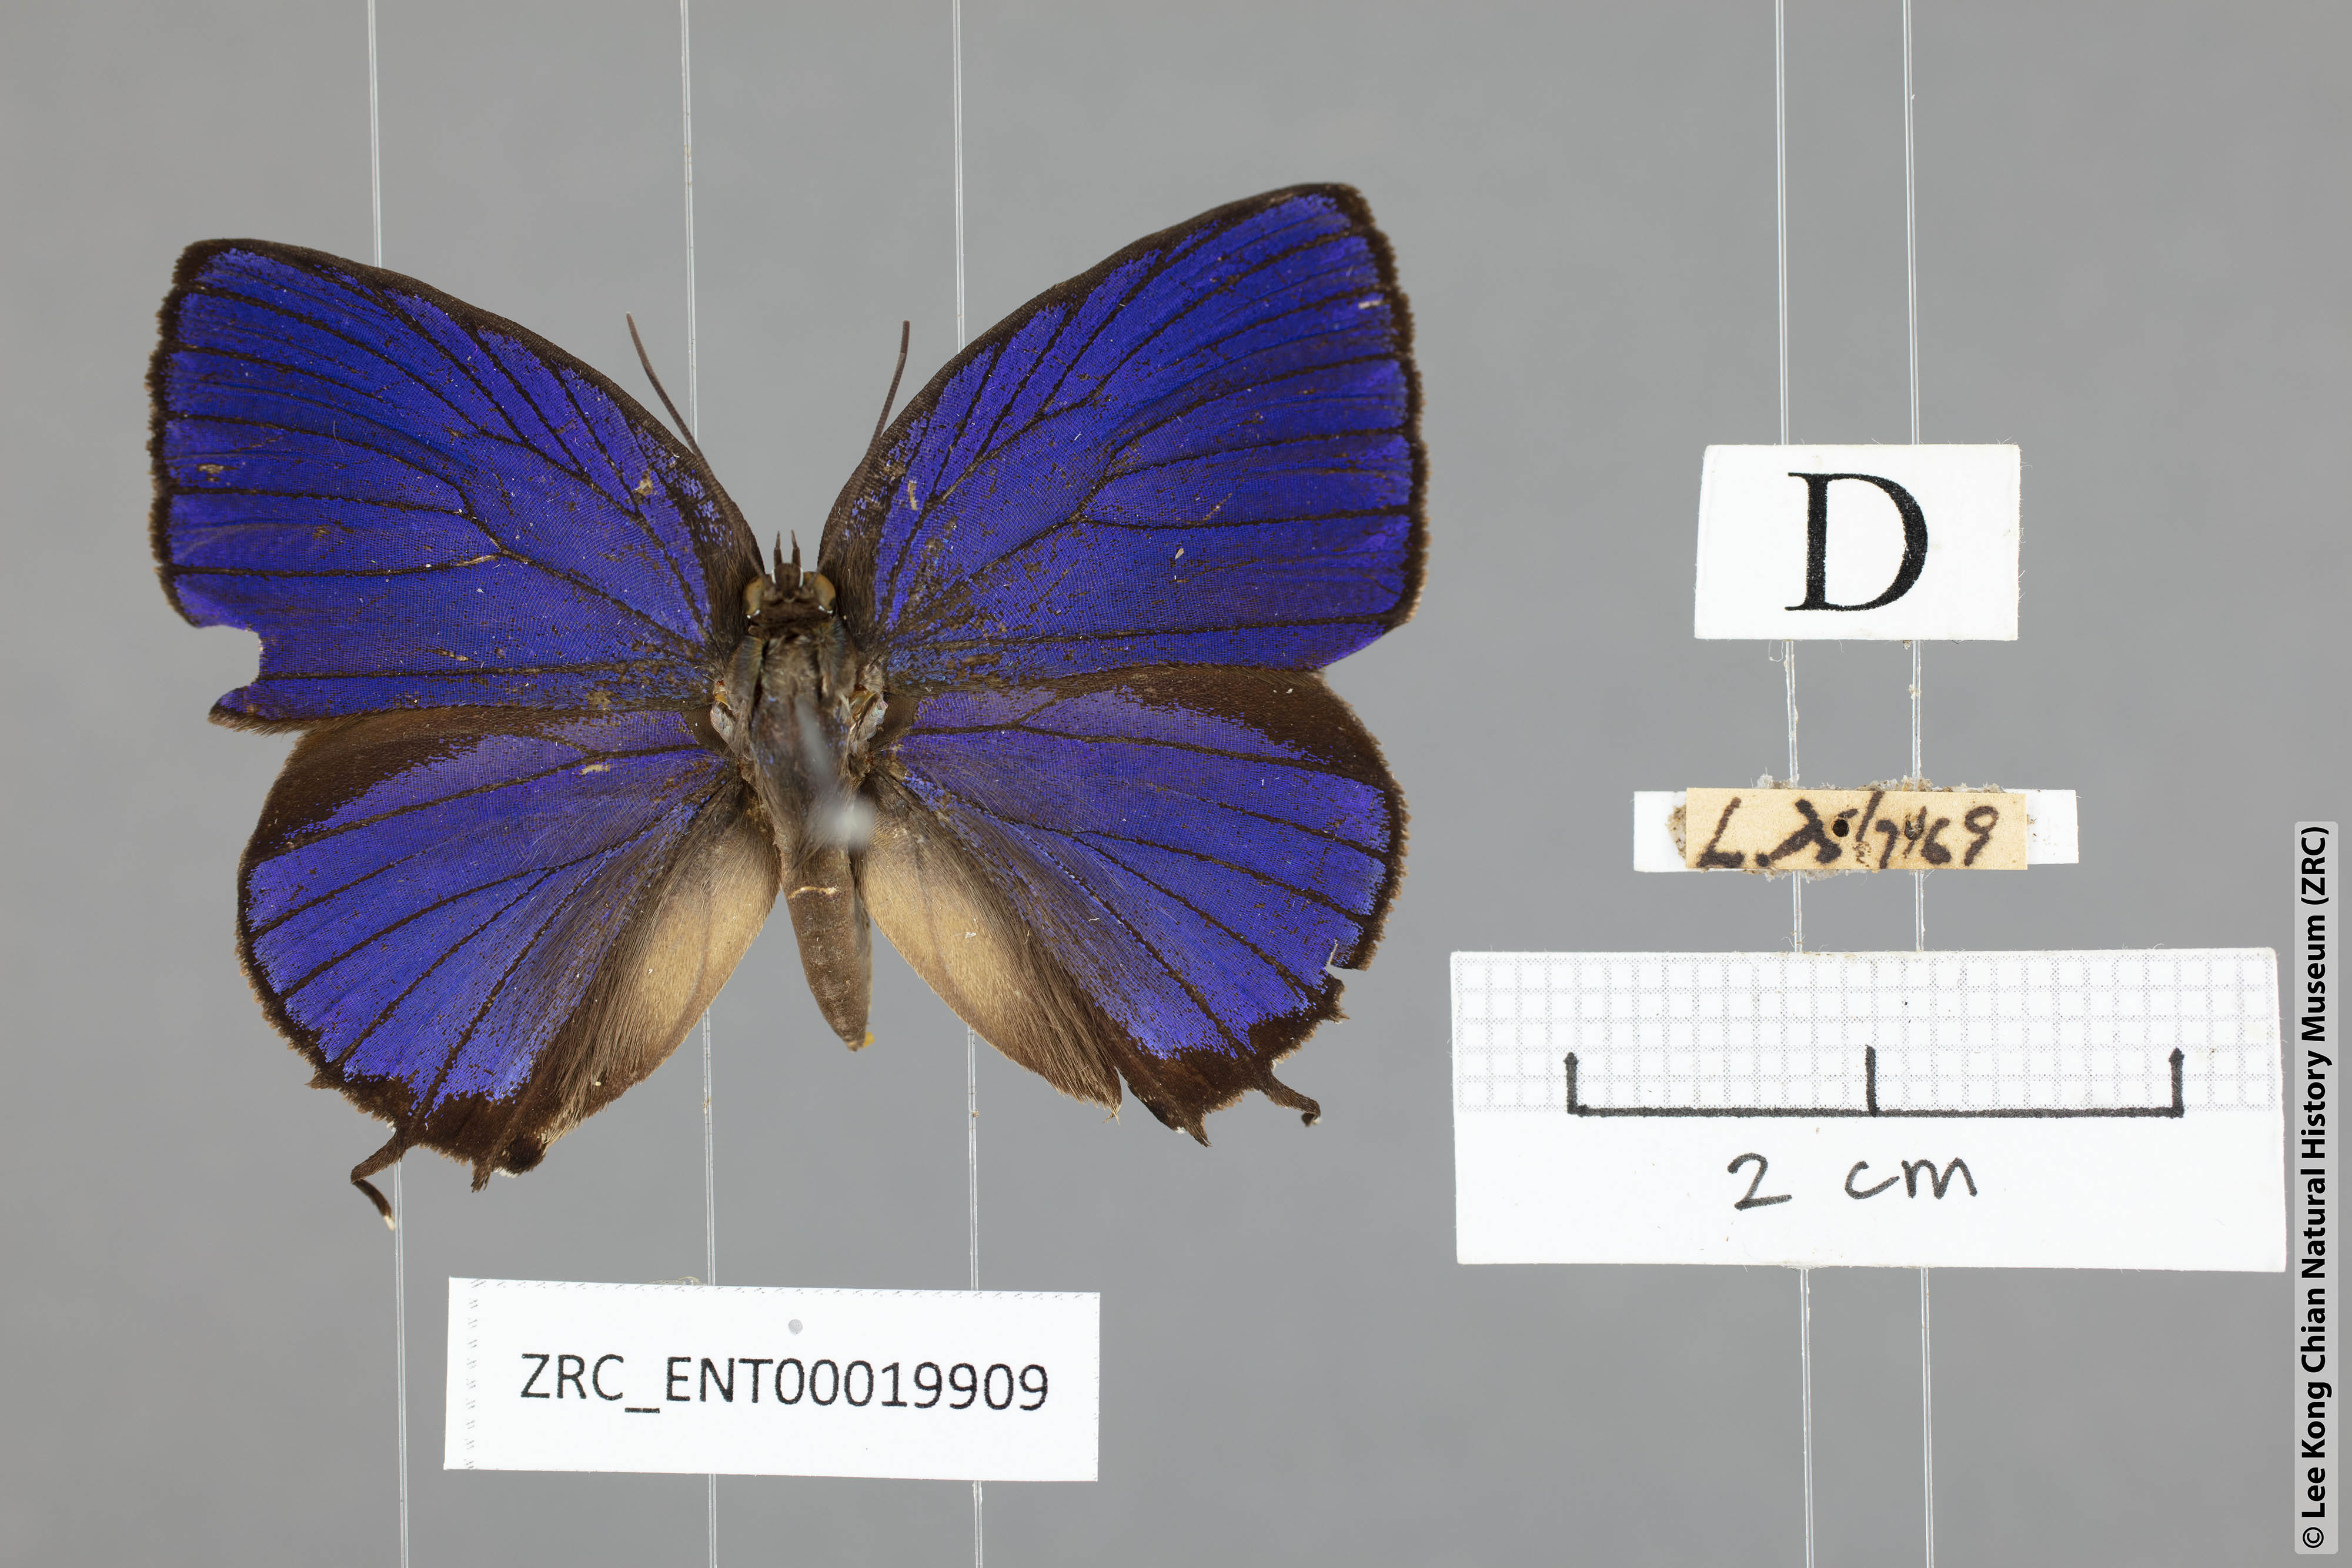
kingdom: Animalia
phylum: Arthropoda
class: Insecta
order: Lepidoptera
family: Lycaenidae
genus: Arhopala
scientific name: Arhopala vihara
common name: Large spotted oakblue
